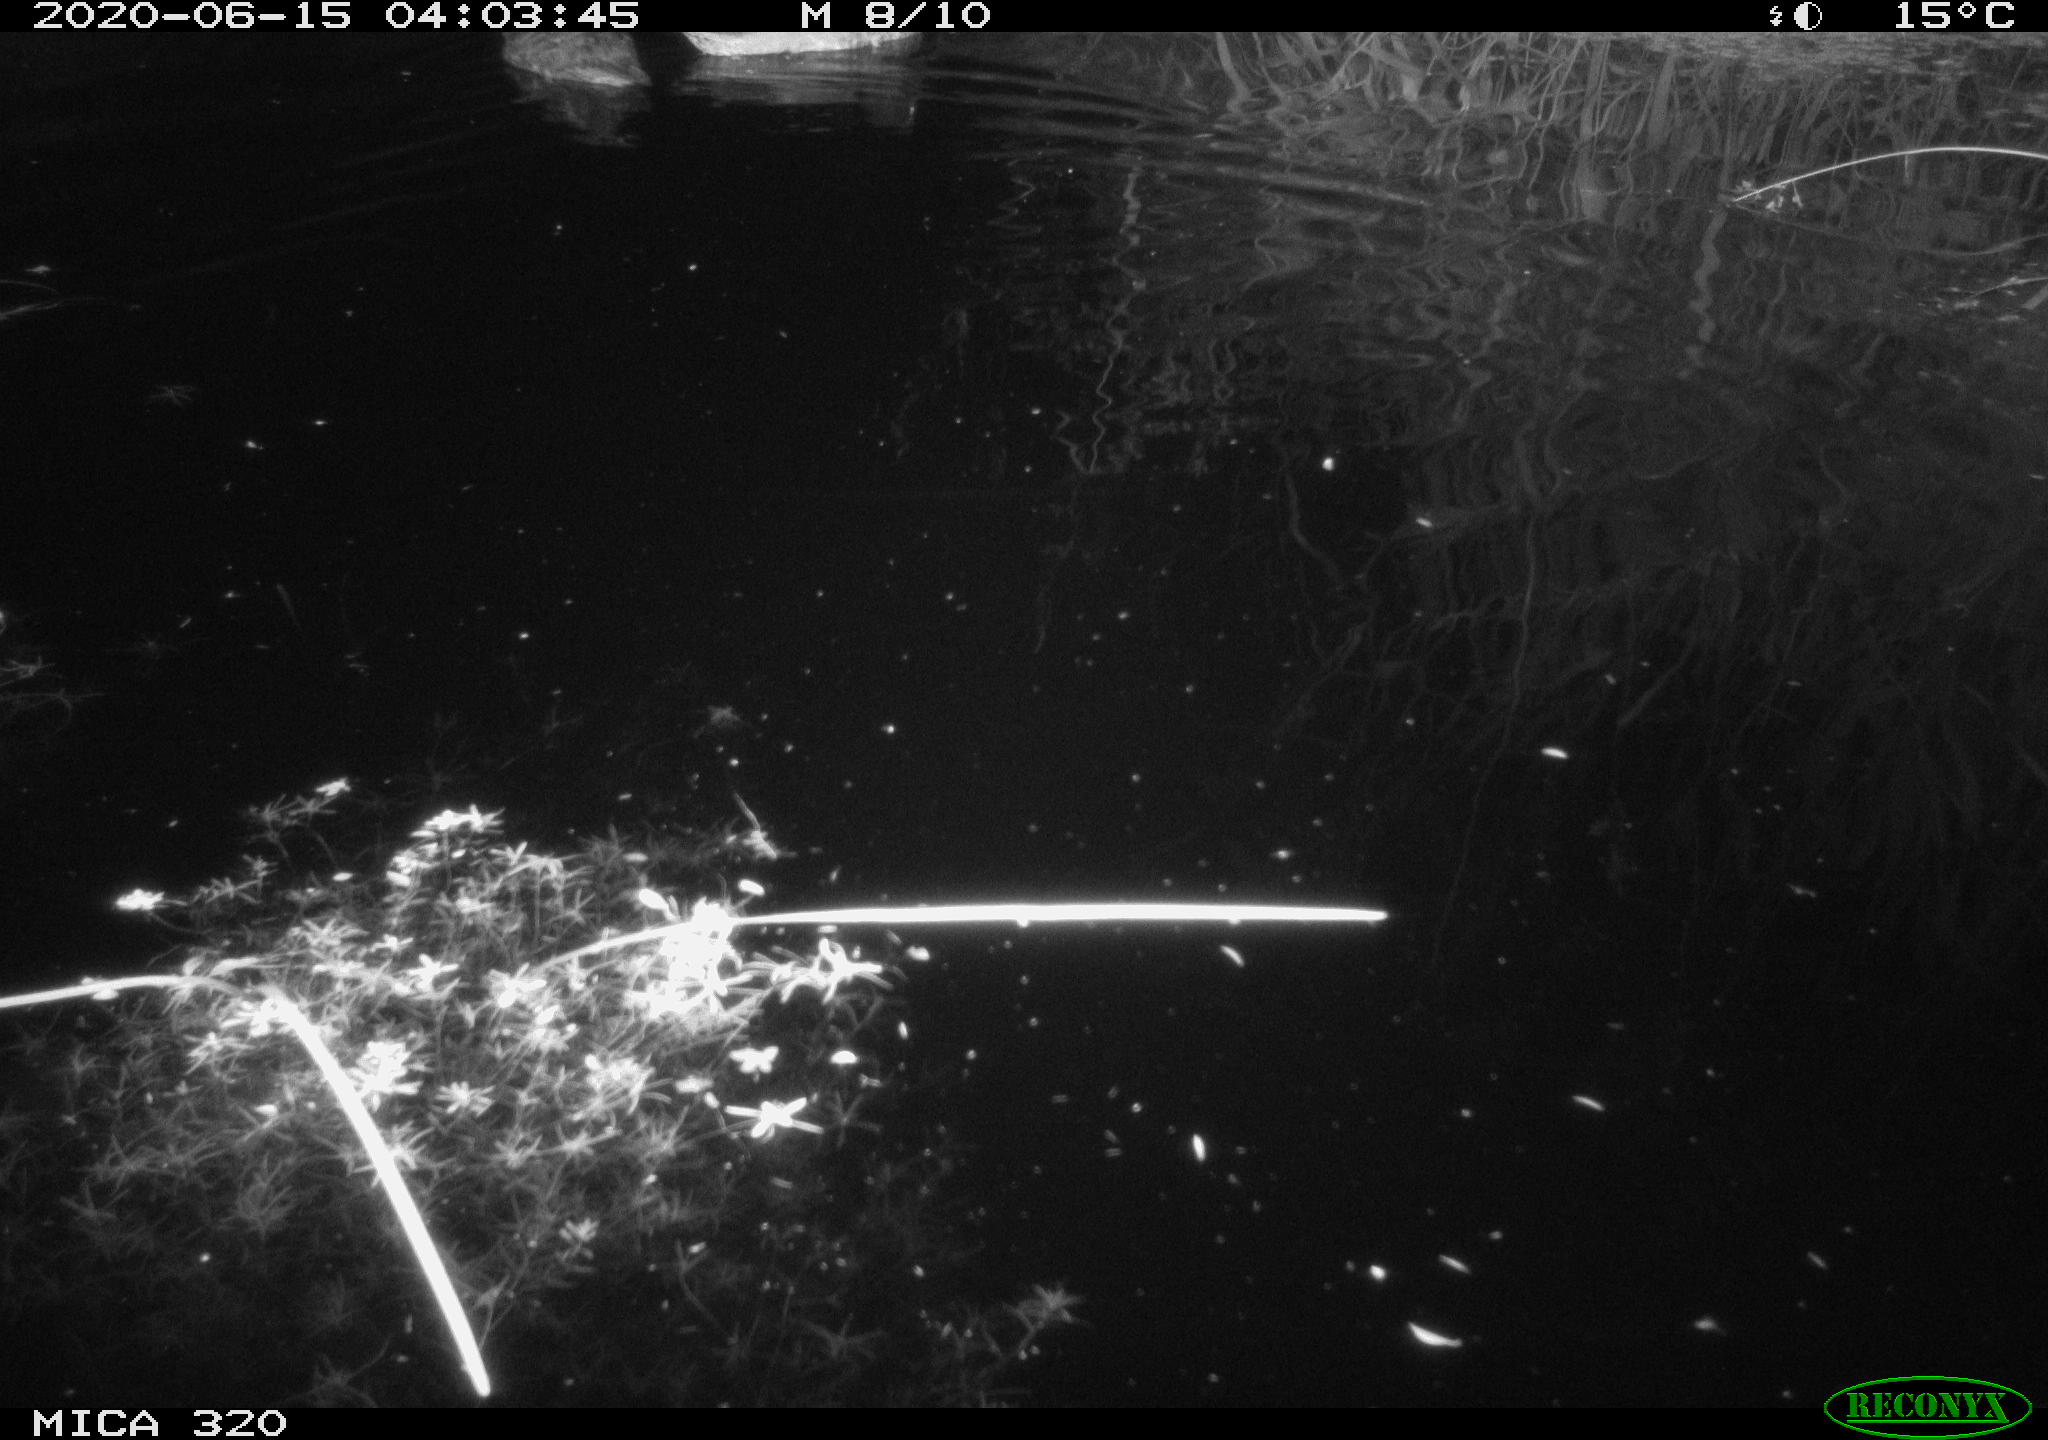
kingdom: Animalia
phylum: Chordata
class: Aves
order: Anseriformes
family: Anatidae
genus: Anas
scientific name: Anas platyrhynchos
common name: Mallard
